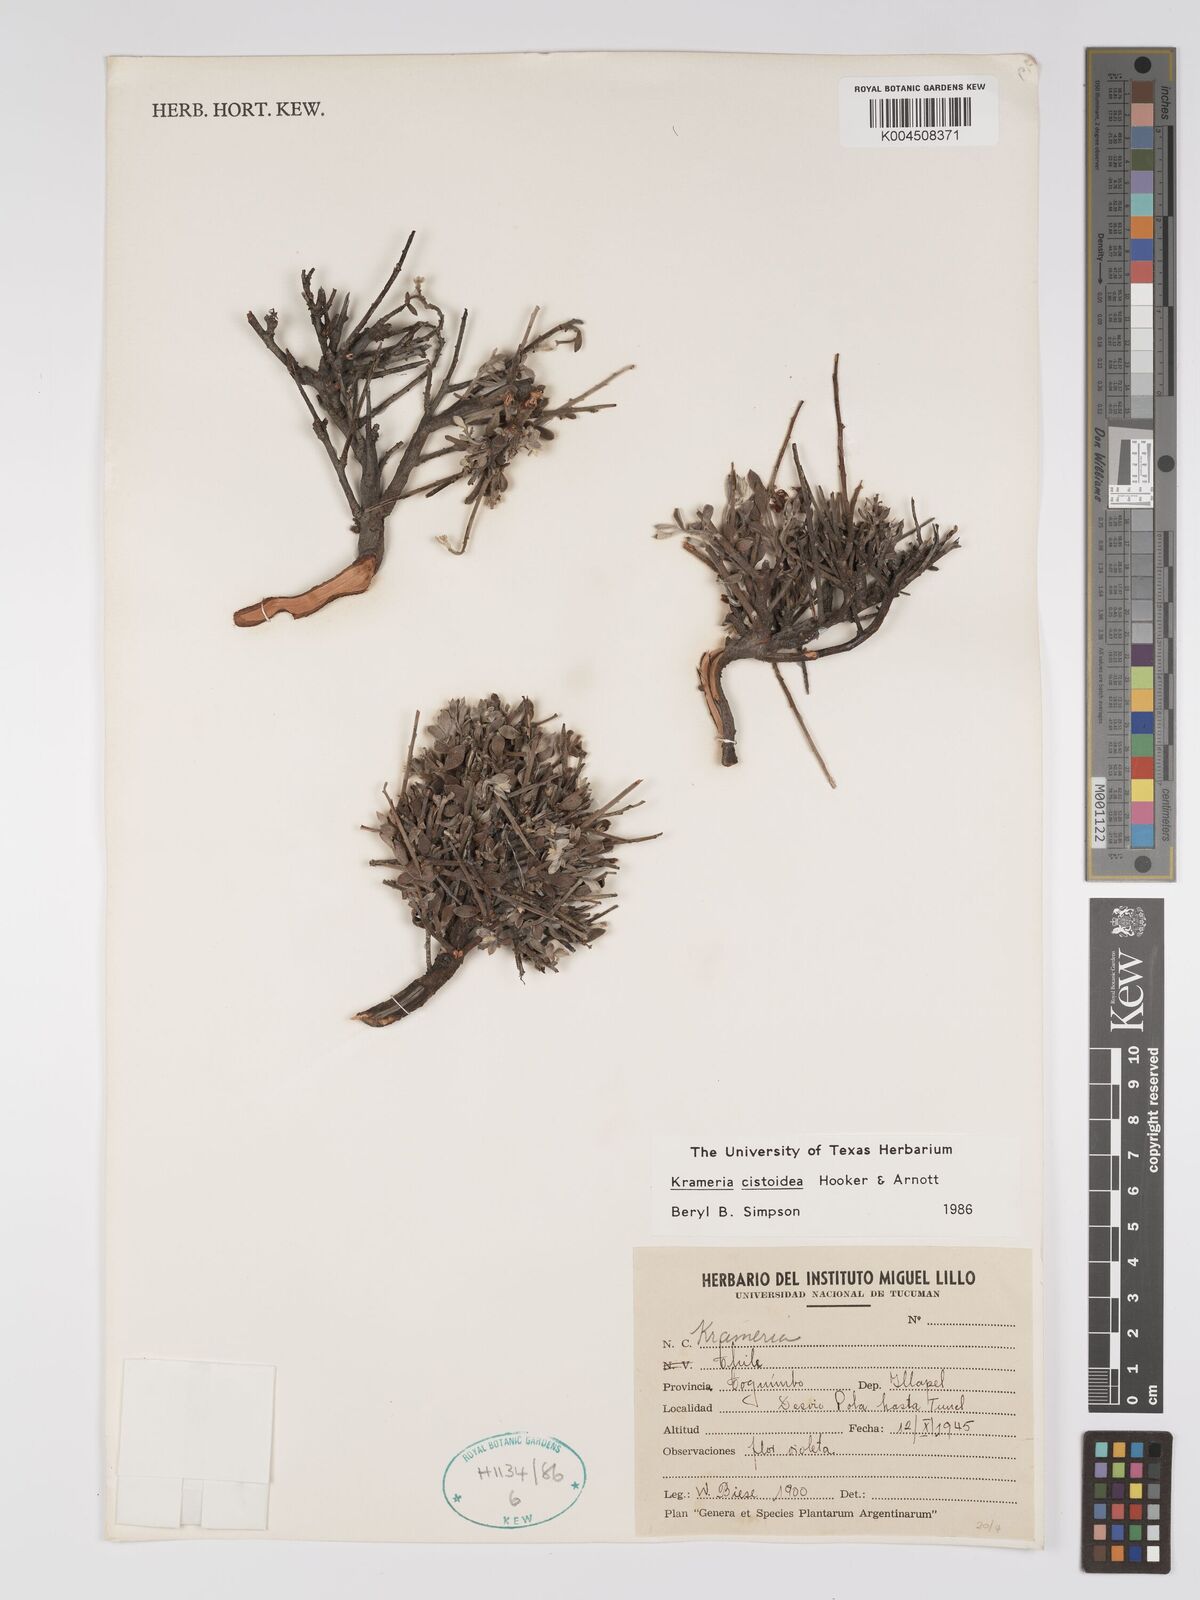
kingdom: Plantae
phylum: Tracheophyta
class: Magnoliopsida
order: Zygophyllales
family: Krameriaceae
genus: Krameria
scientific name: Krameria cistoidea
